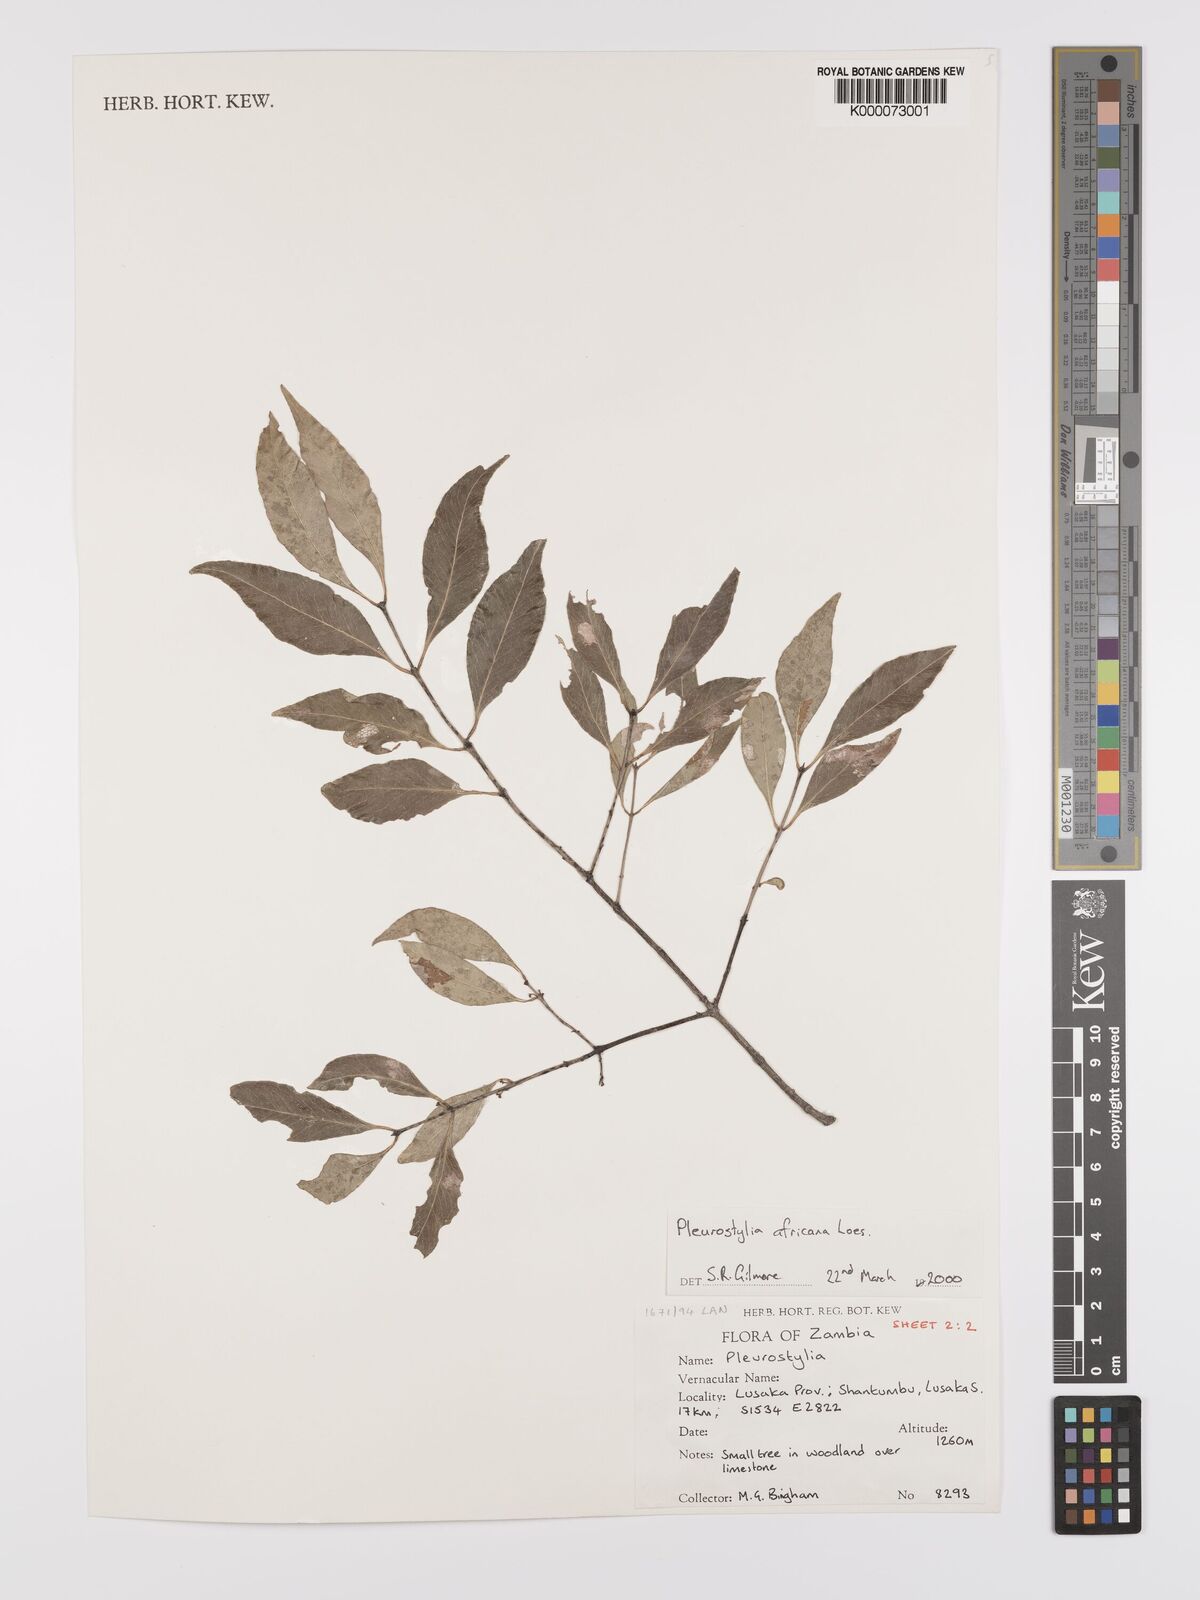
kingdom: Plantae
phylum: Tracheophyta
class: Magnoliopsida
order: Celastrales
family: Celastraceae
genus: Pleurostylia
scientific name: Pleurostylia africana
